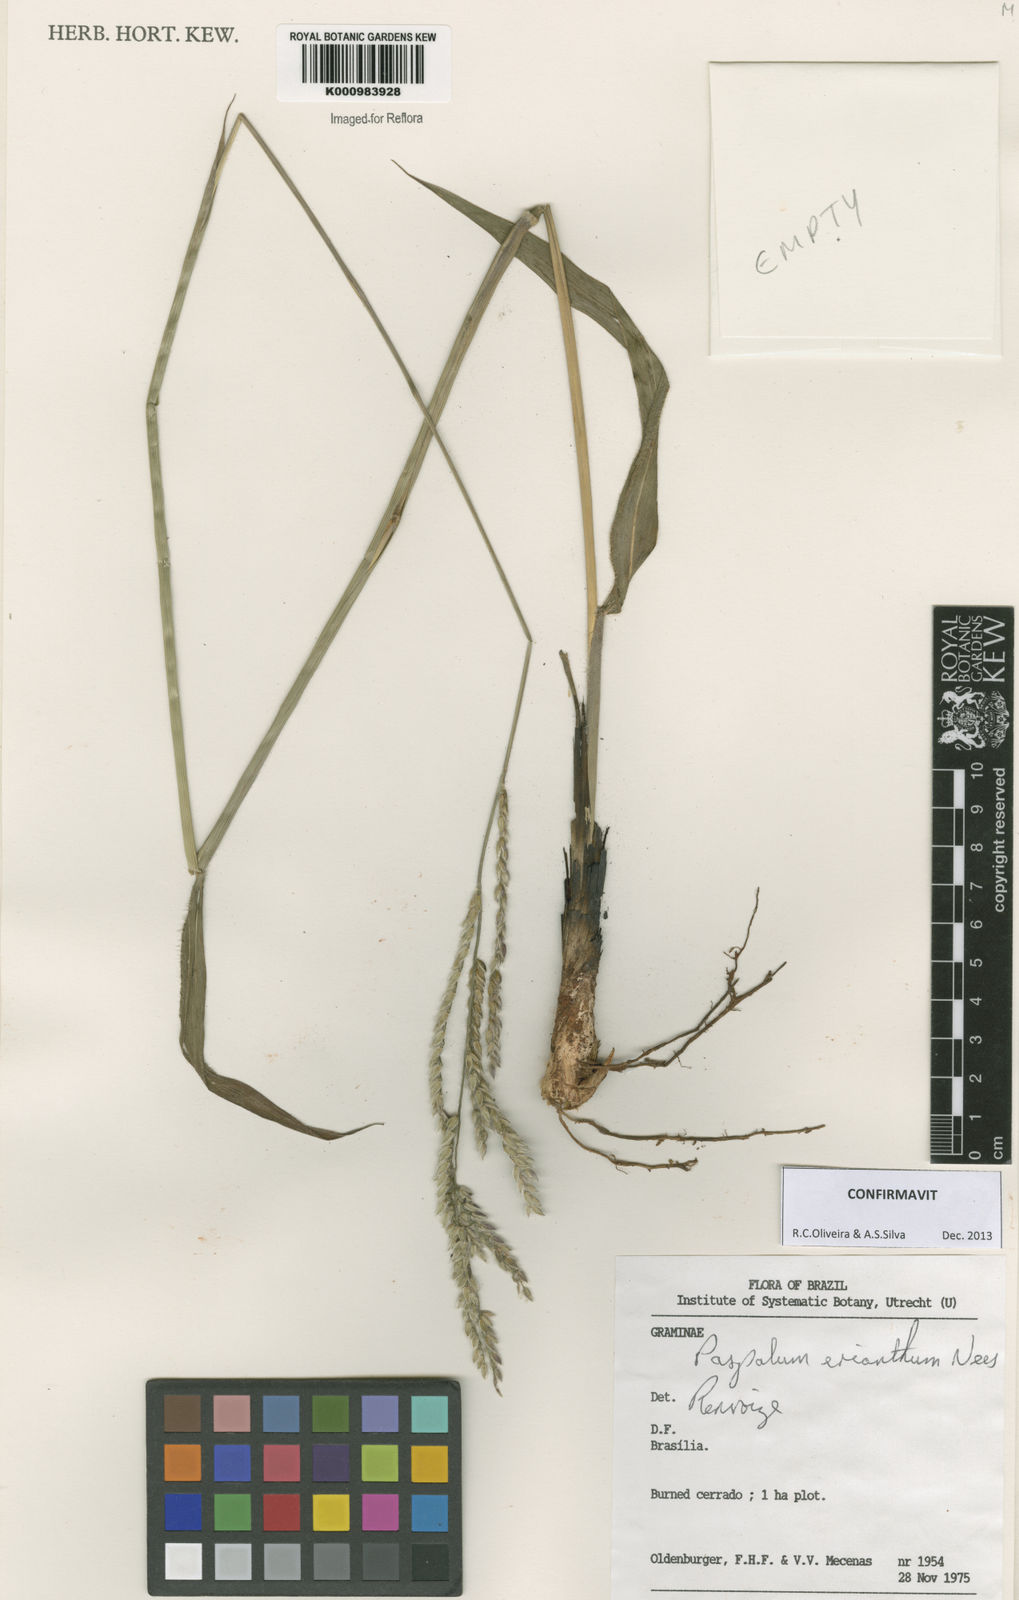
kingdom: Plantae
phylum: Tracheophyta
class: Liliopsida
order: Poales
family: Poaceae
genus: Paspalum
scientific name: Paspalum erianthum
